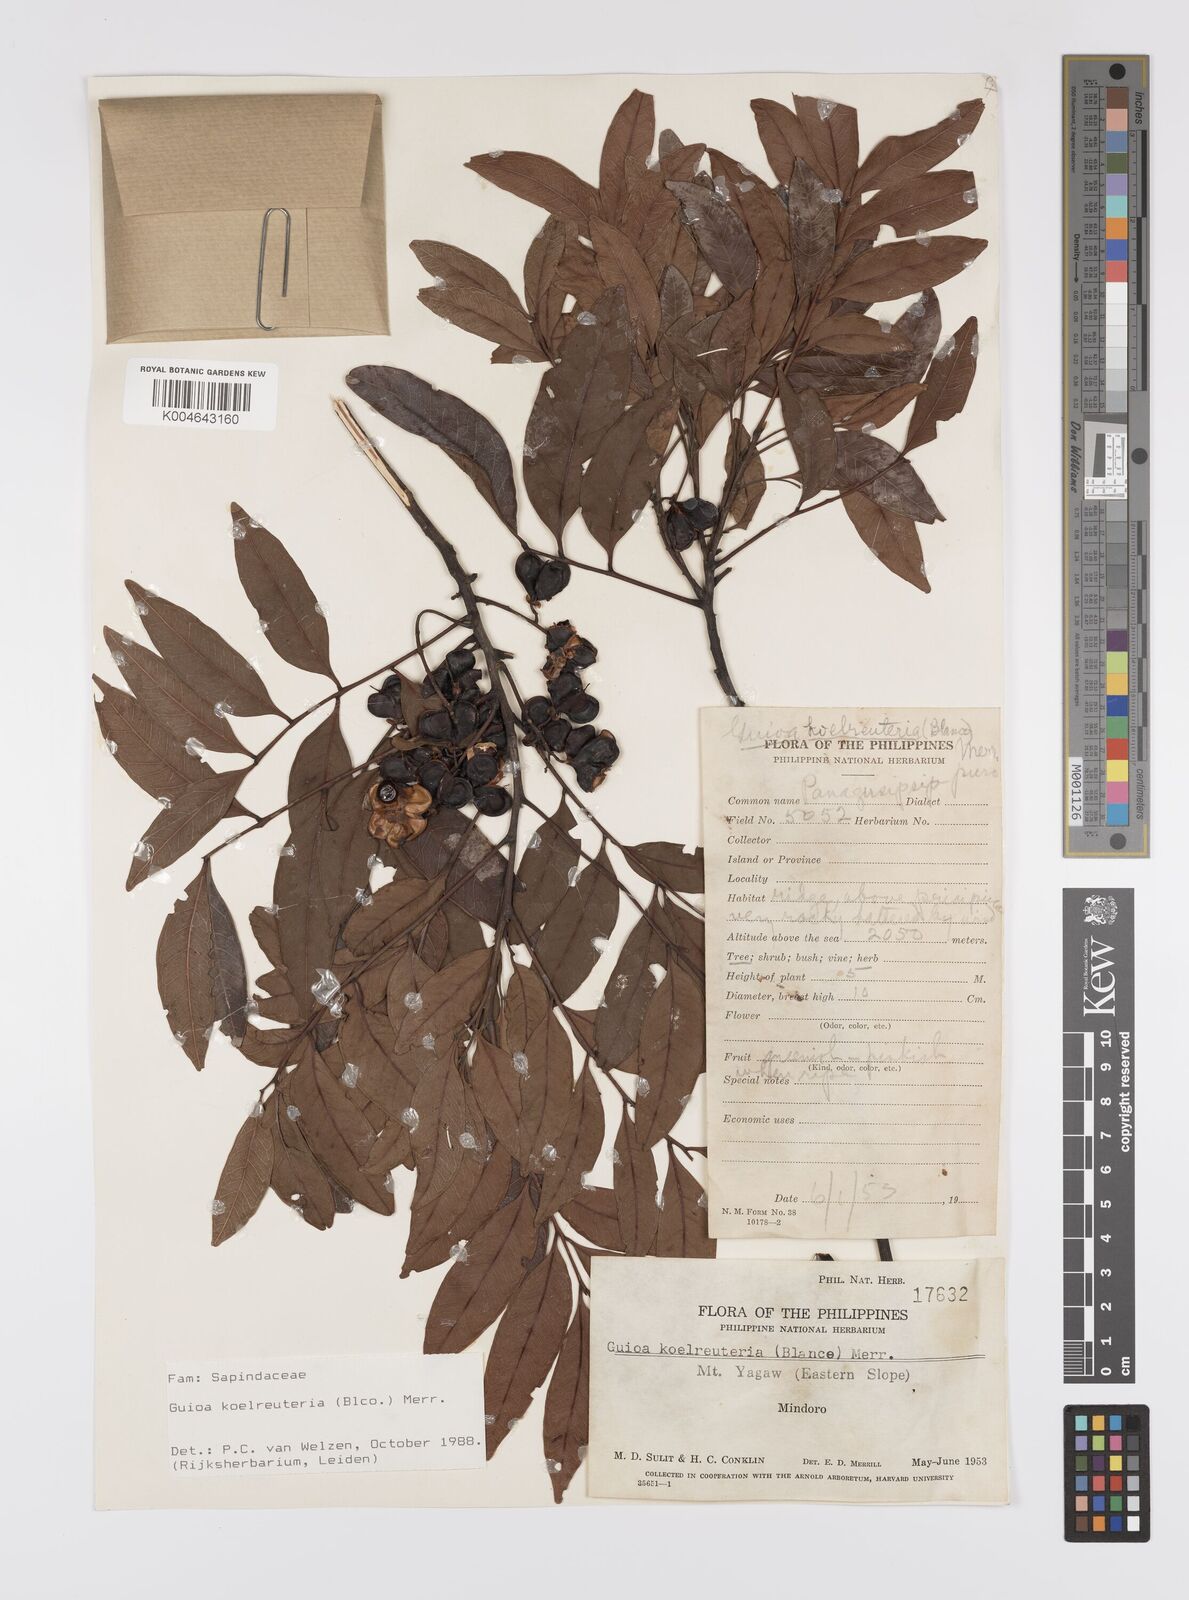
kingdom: Plantae
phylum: Tracheophyta
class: Magnoliopsida
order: Sapindales
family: Sapindaceae
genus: Guioa
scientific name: Guioa koelreuteria
